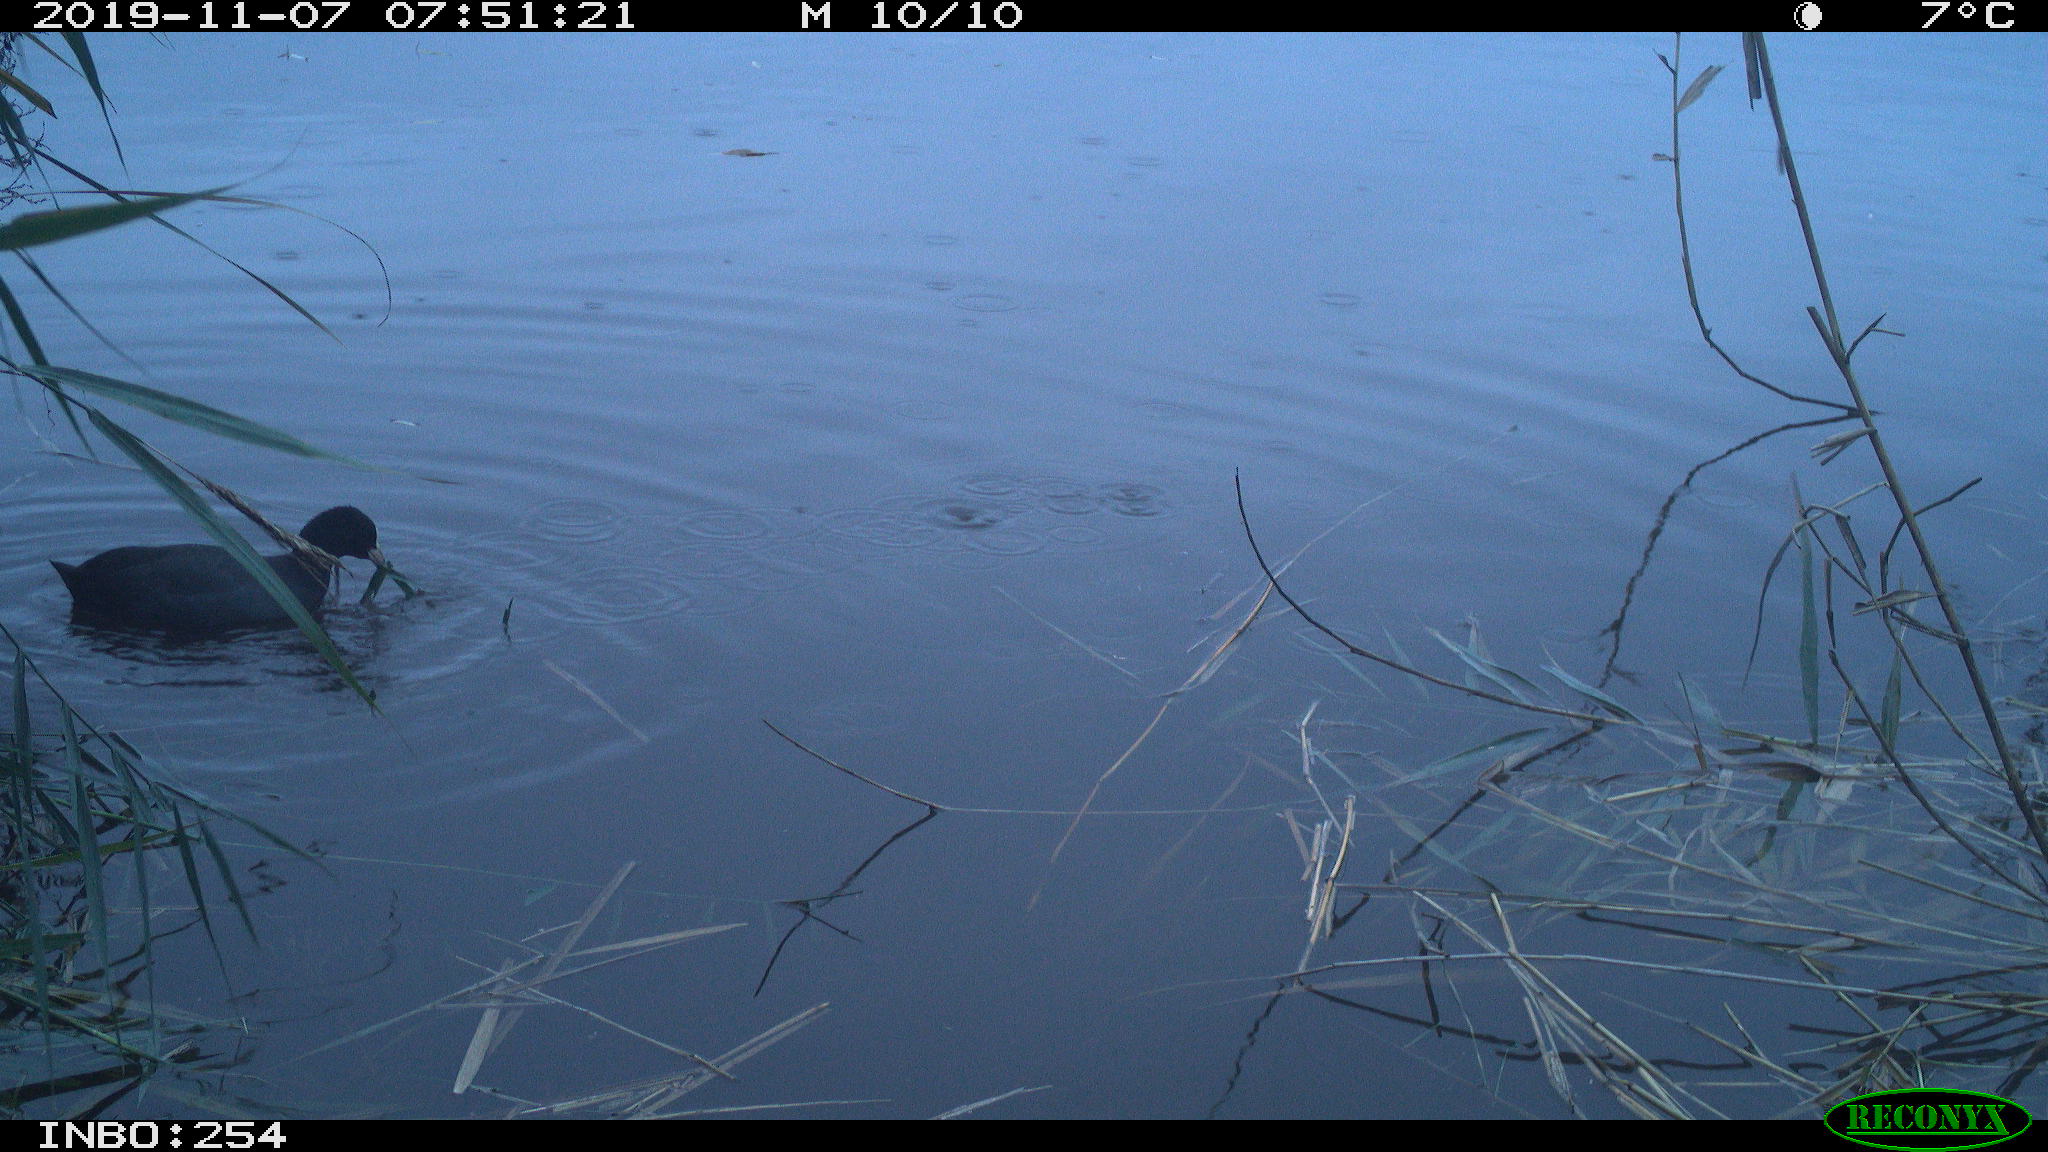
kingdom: Animalia
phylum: Chordata
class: Aves
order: Gruiformes
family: Rallidae
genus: Fulica
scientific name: Fulica atra
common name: Eurasian coot
